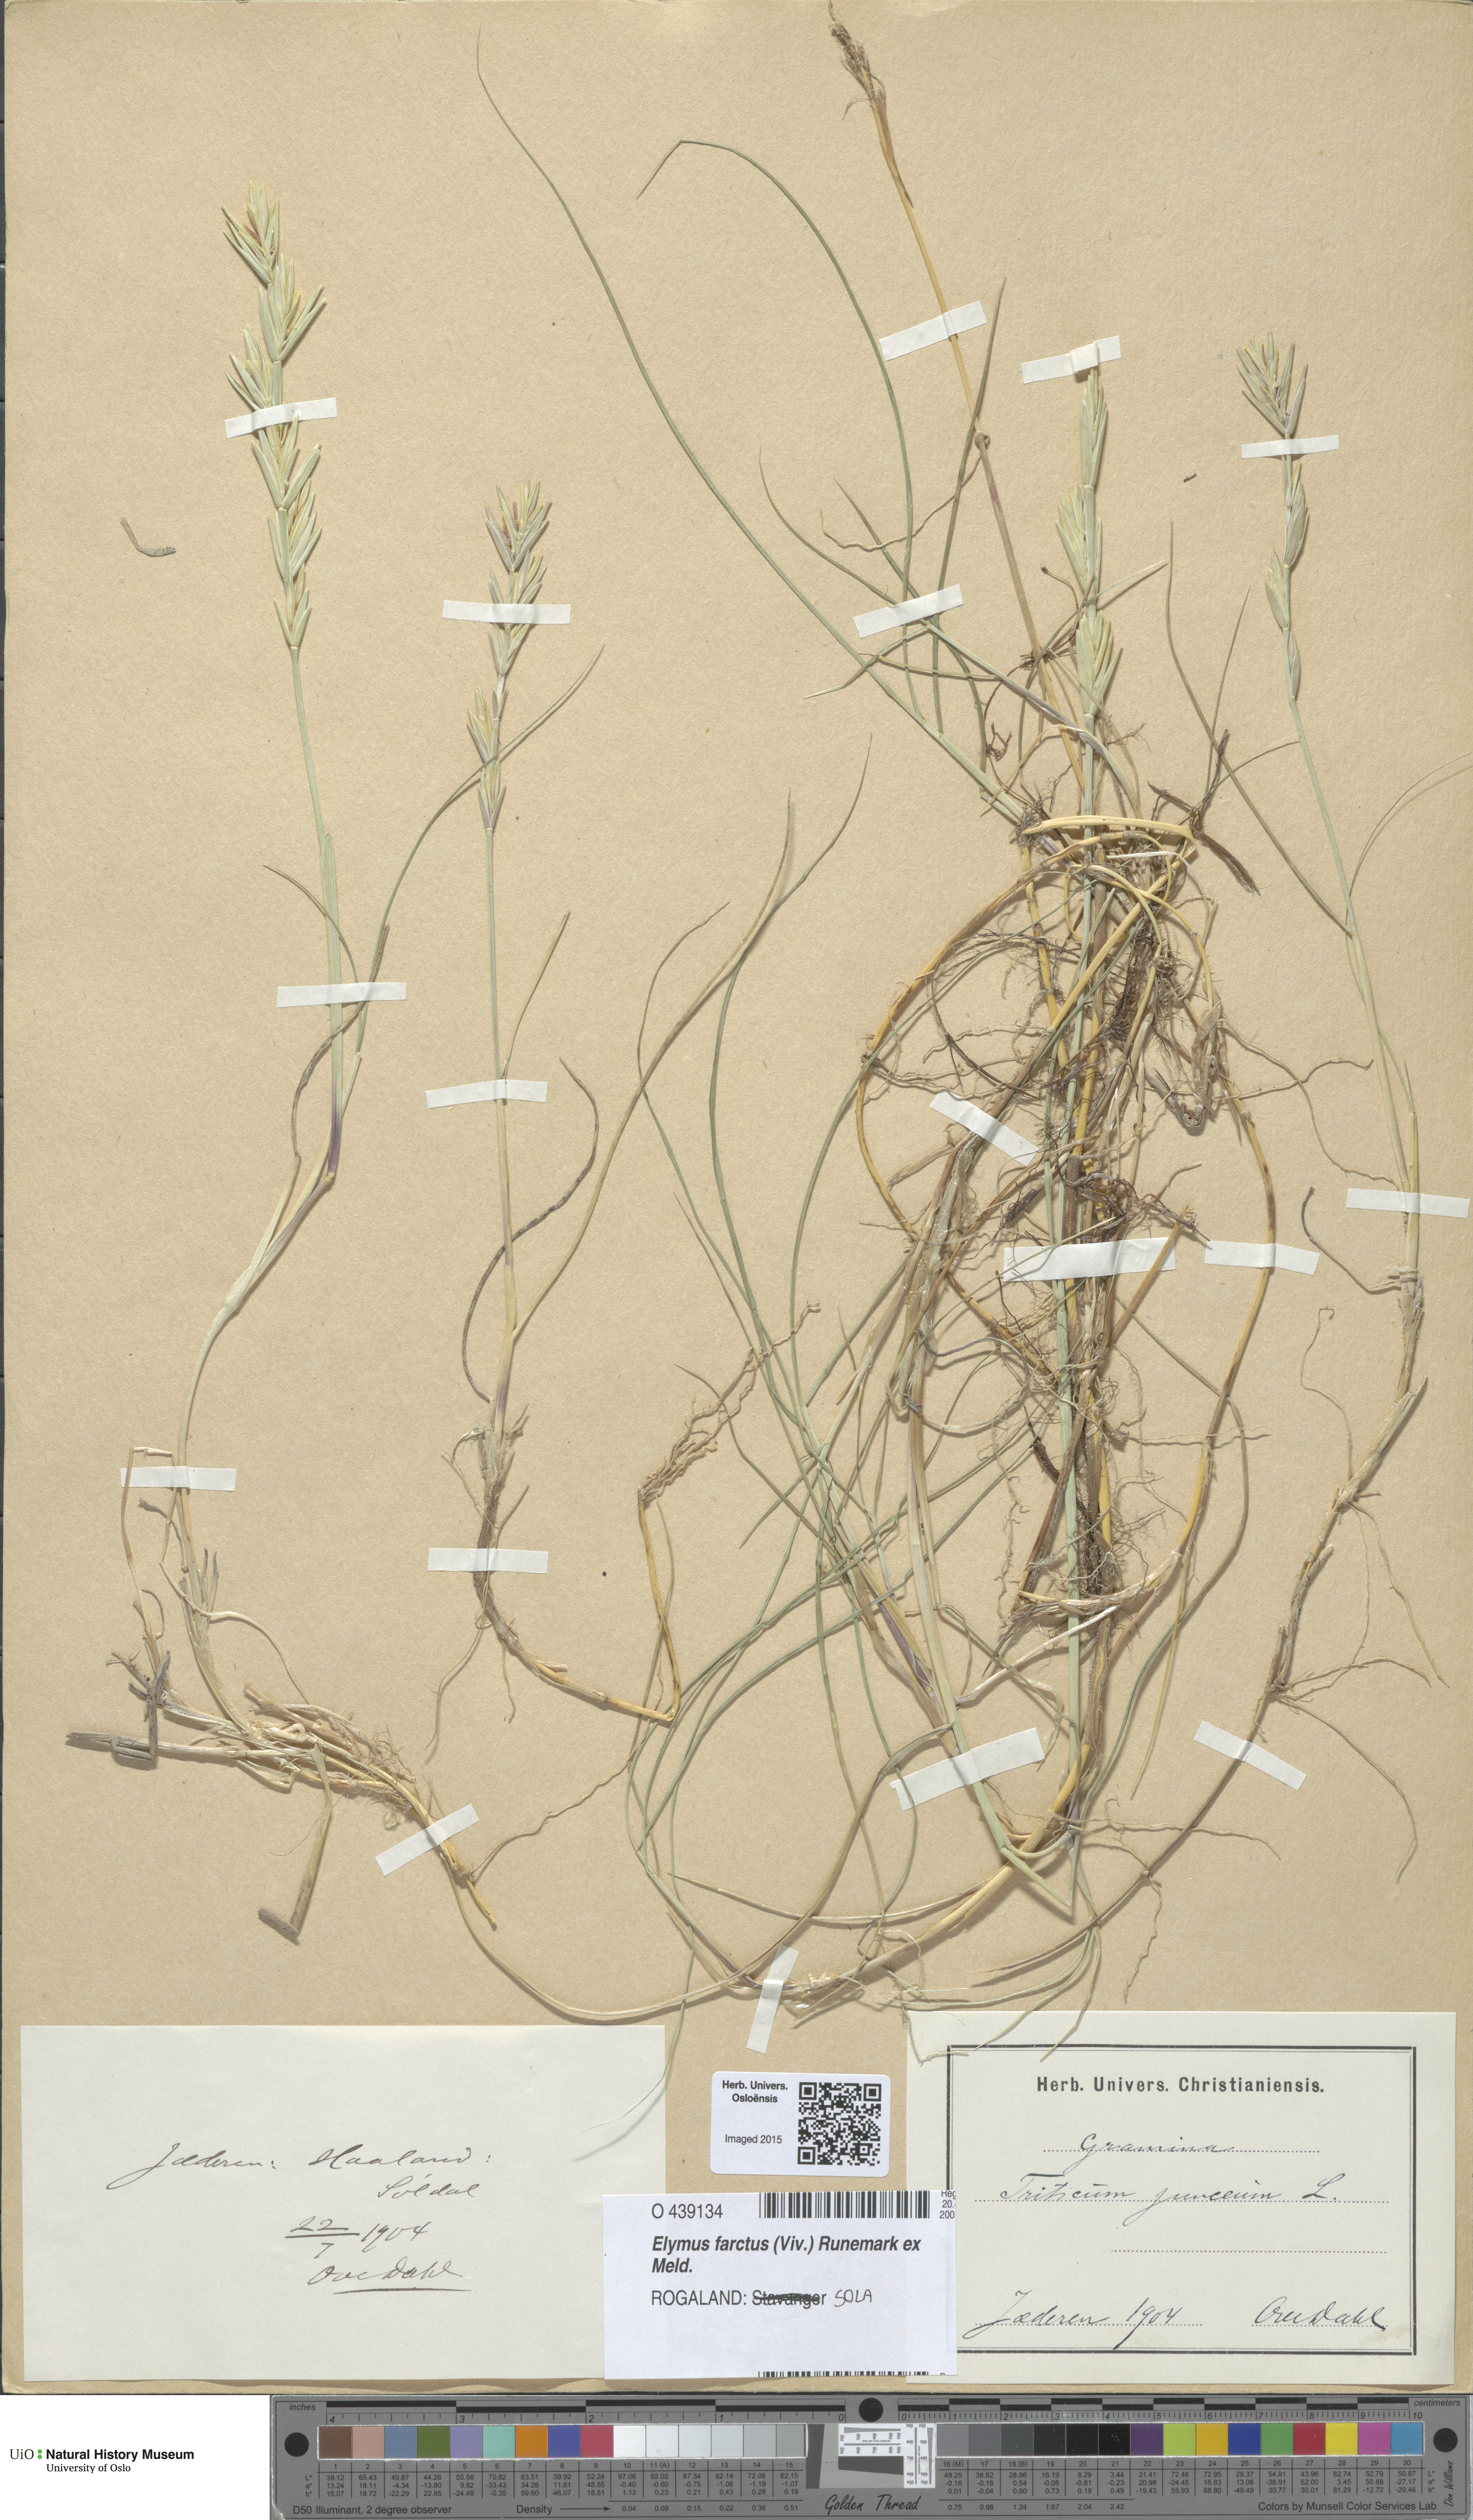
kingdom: Plantae
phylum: Tracheophyta
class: Liliopsida
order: Poales
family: Poaceae
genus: Thinopyrum
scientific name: Thinopyrum junceum
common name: Russian wheatgrass
